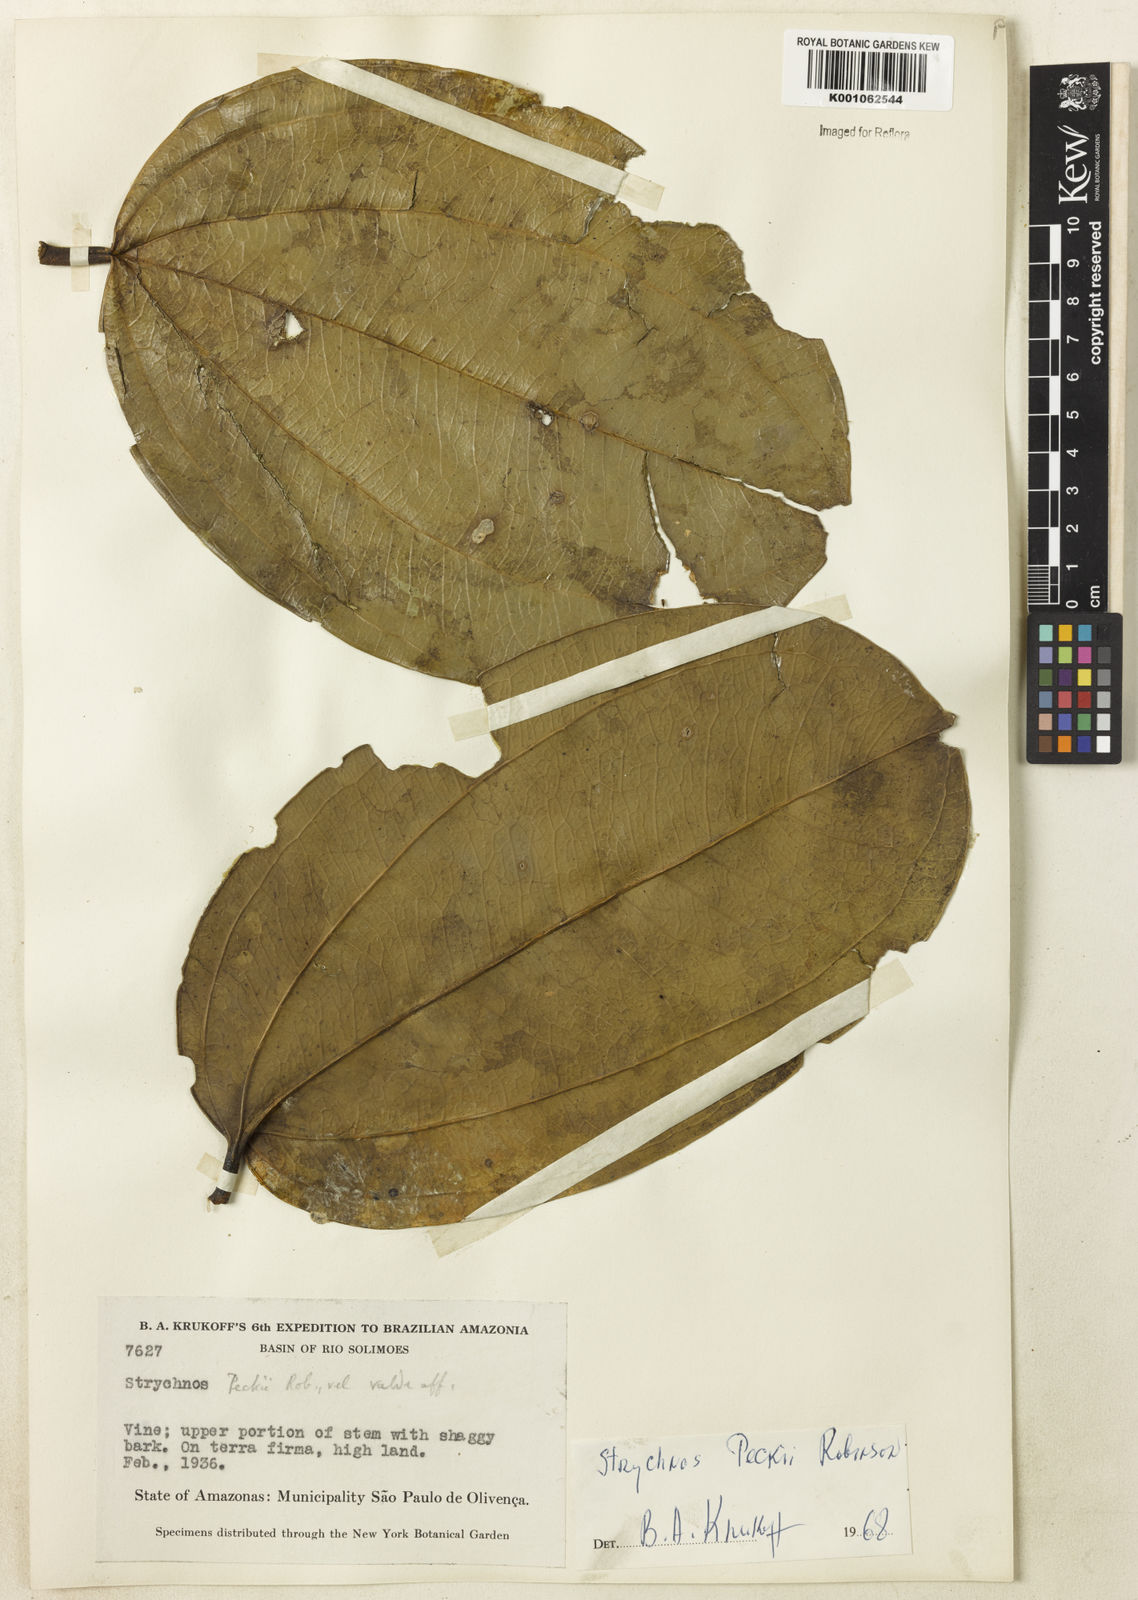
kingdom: Plantae
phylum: Tracheophyta
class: Magnoliopsida
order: Gentianales
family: Loganiaceae
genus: Strychnos
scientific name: Strychnos peckii
